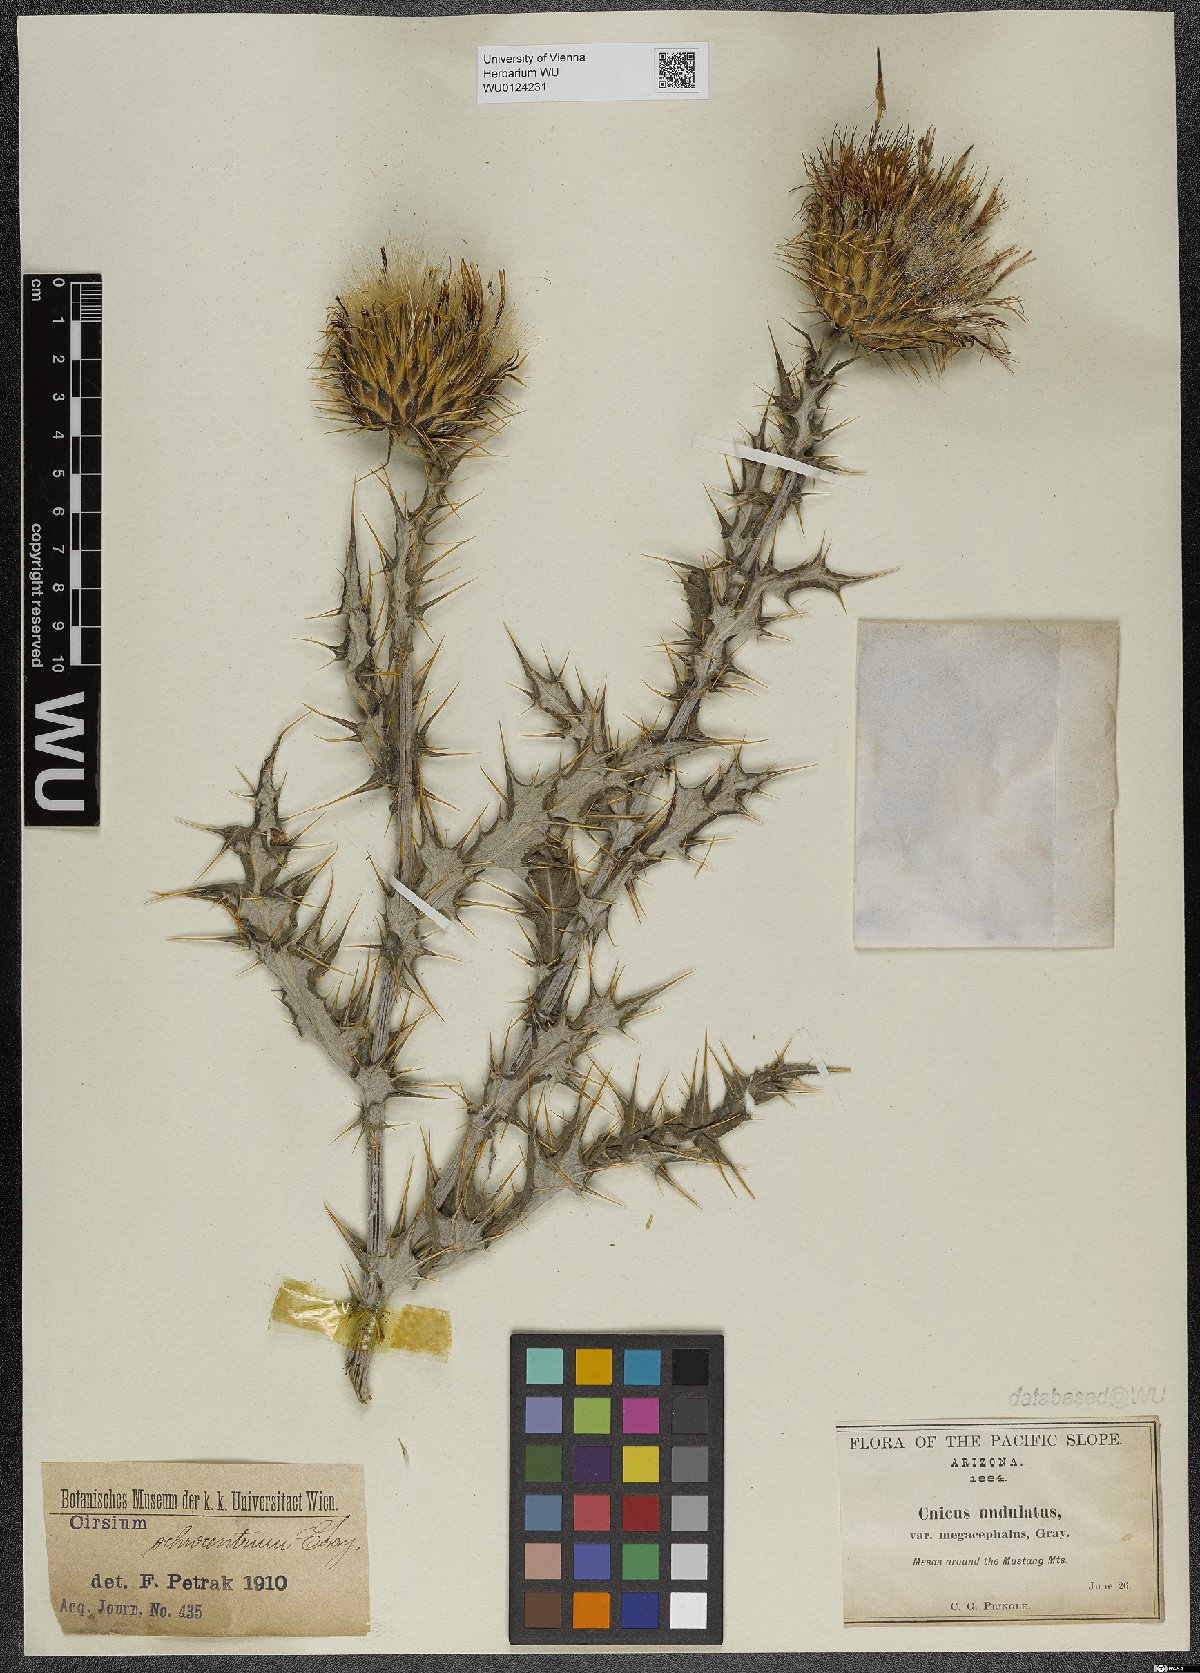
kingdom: Plantae
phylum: Tracheophyta
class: Magnoliopsida
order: Asterales
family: Asteraceae
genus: Cirsium
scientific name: Cirsium ochrocentrum
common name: Yellow-spine thistle
